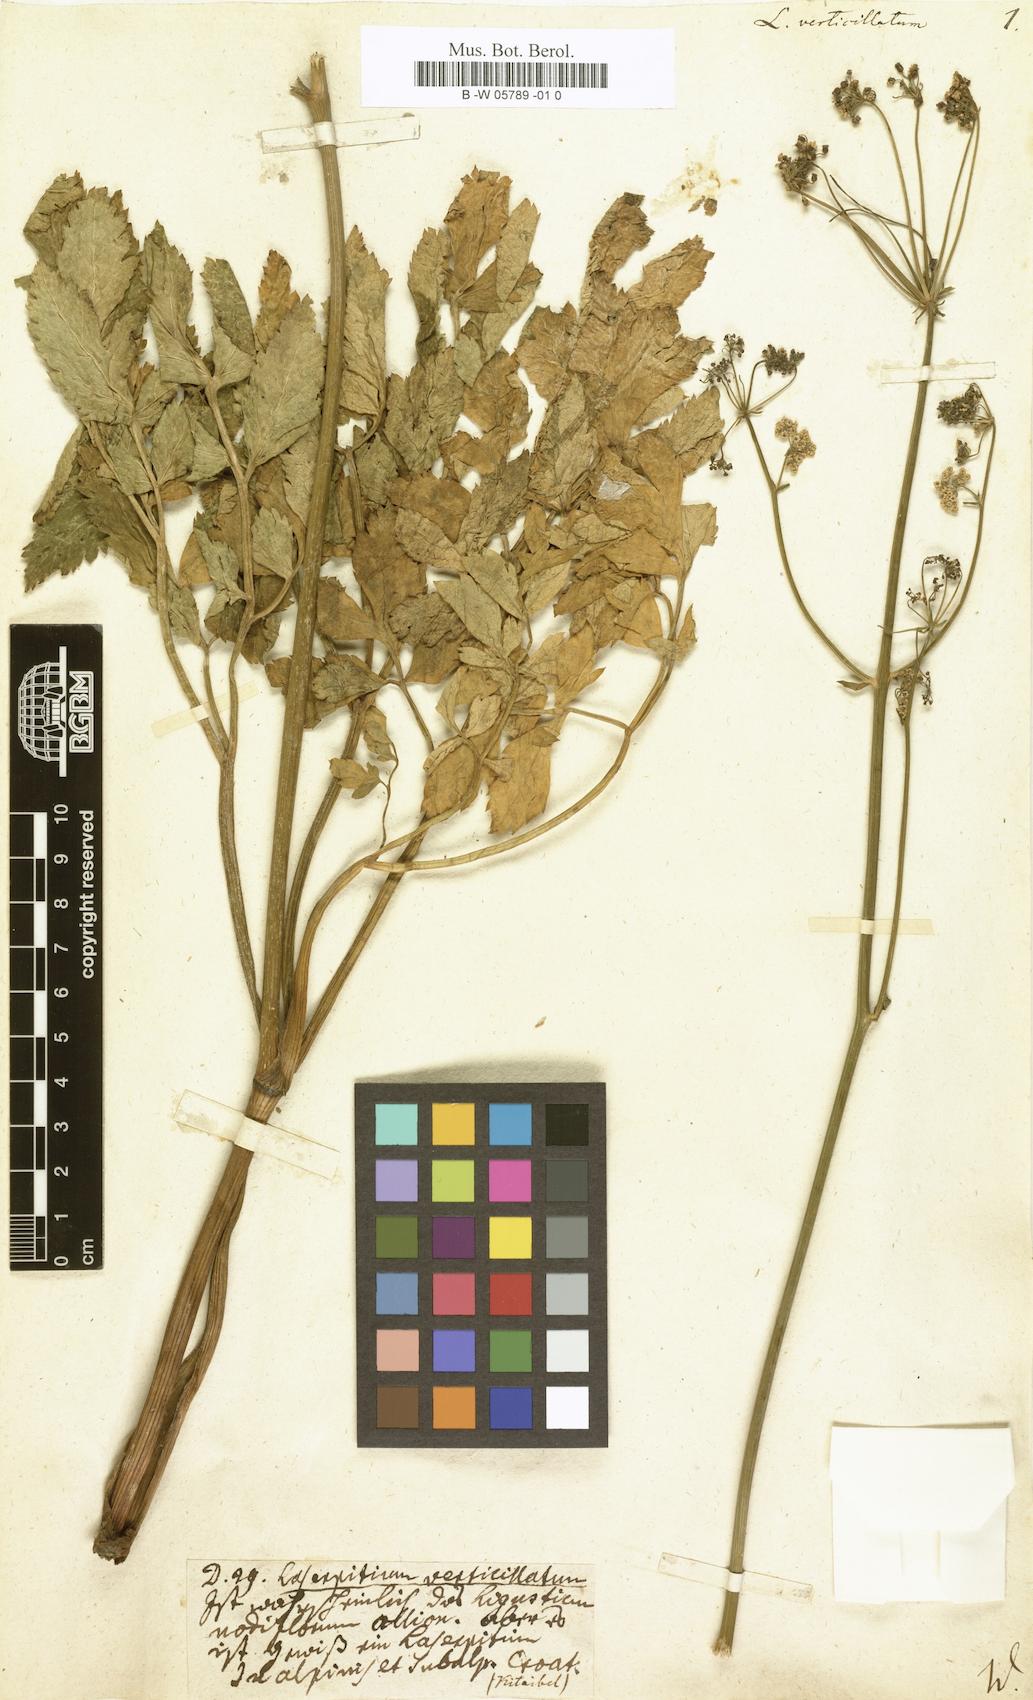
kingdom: Plantae
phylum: Tracheophyta
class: Magnoliopsida
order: Apiales
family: Apiaceae
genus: Physospermum
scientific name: Physospermum verticillatum
